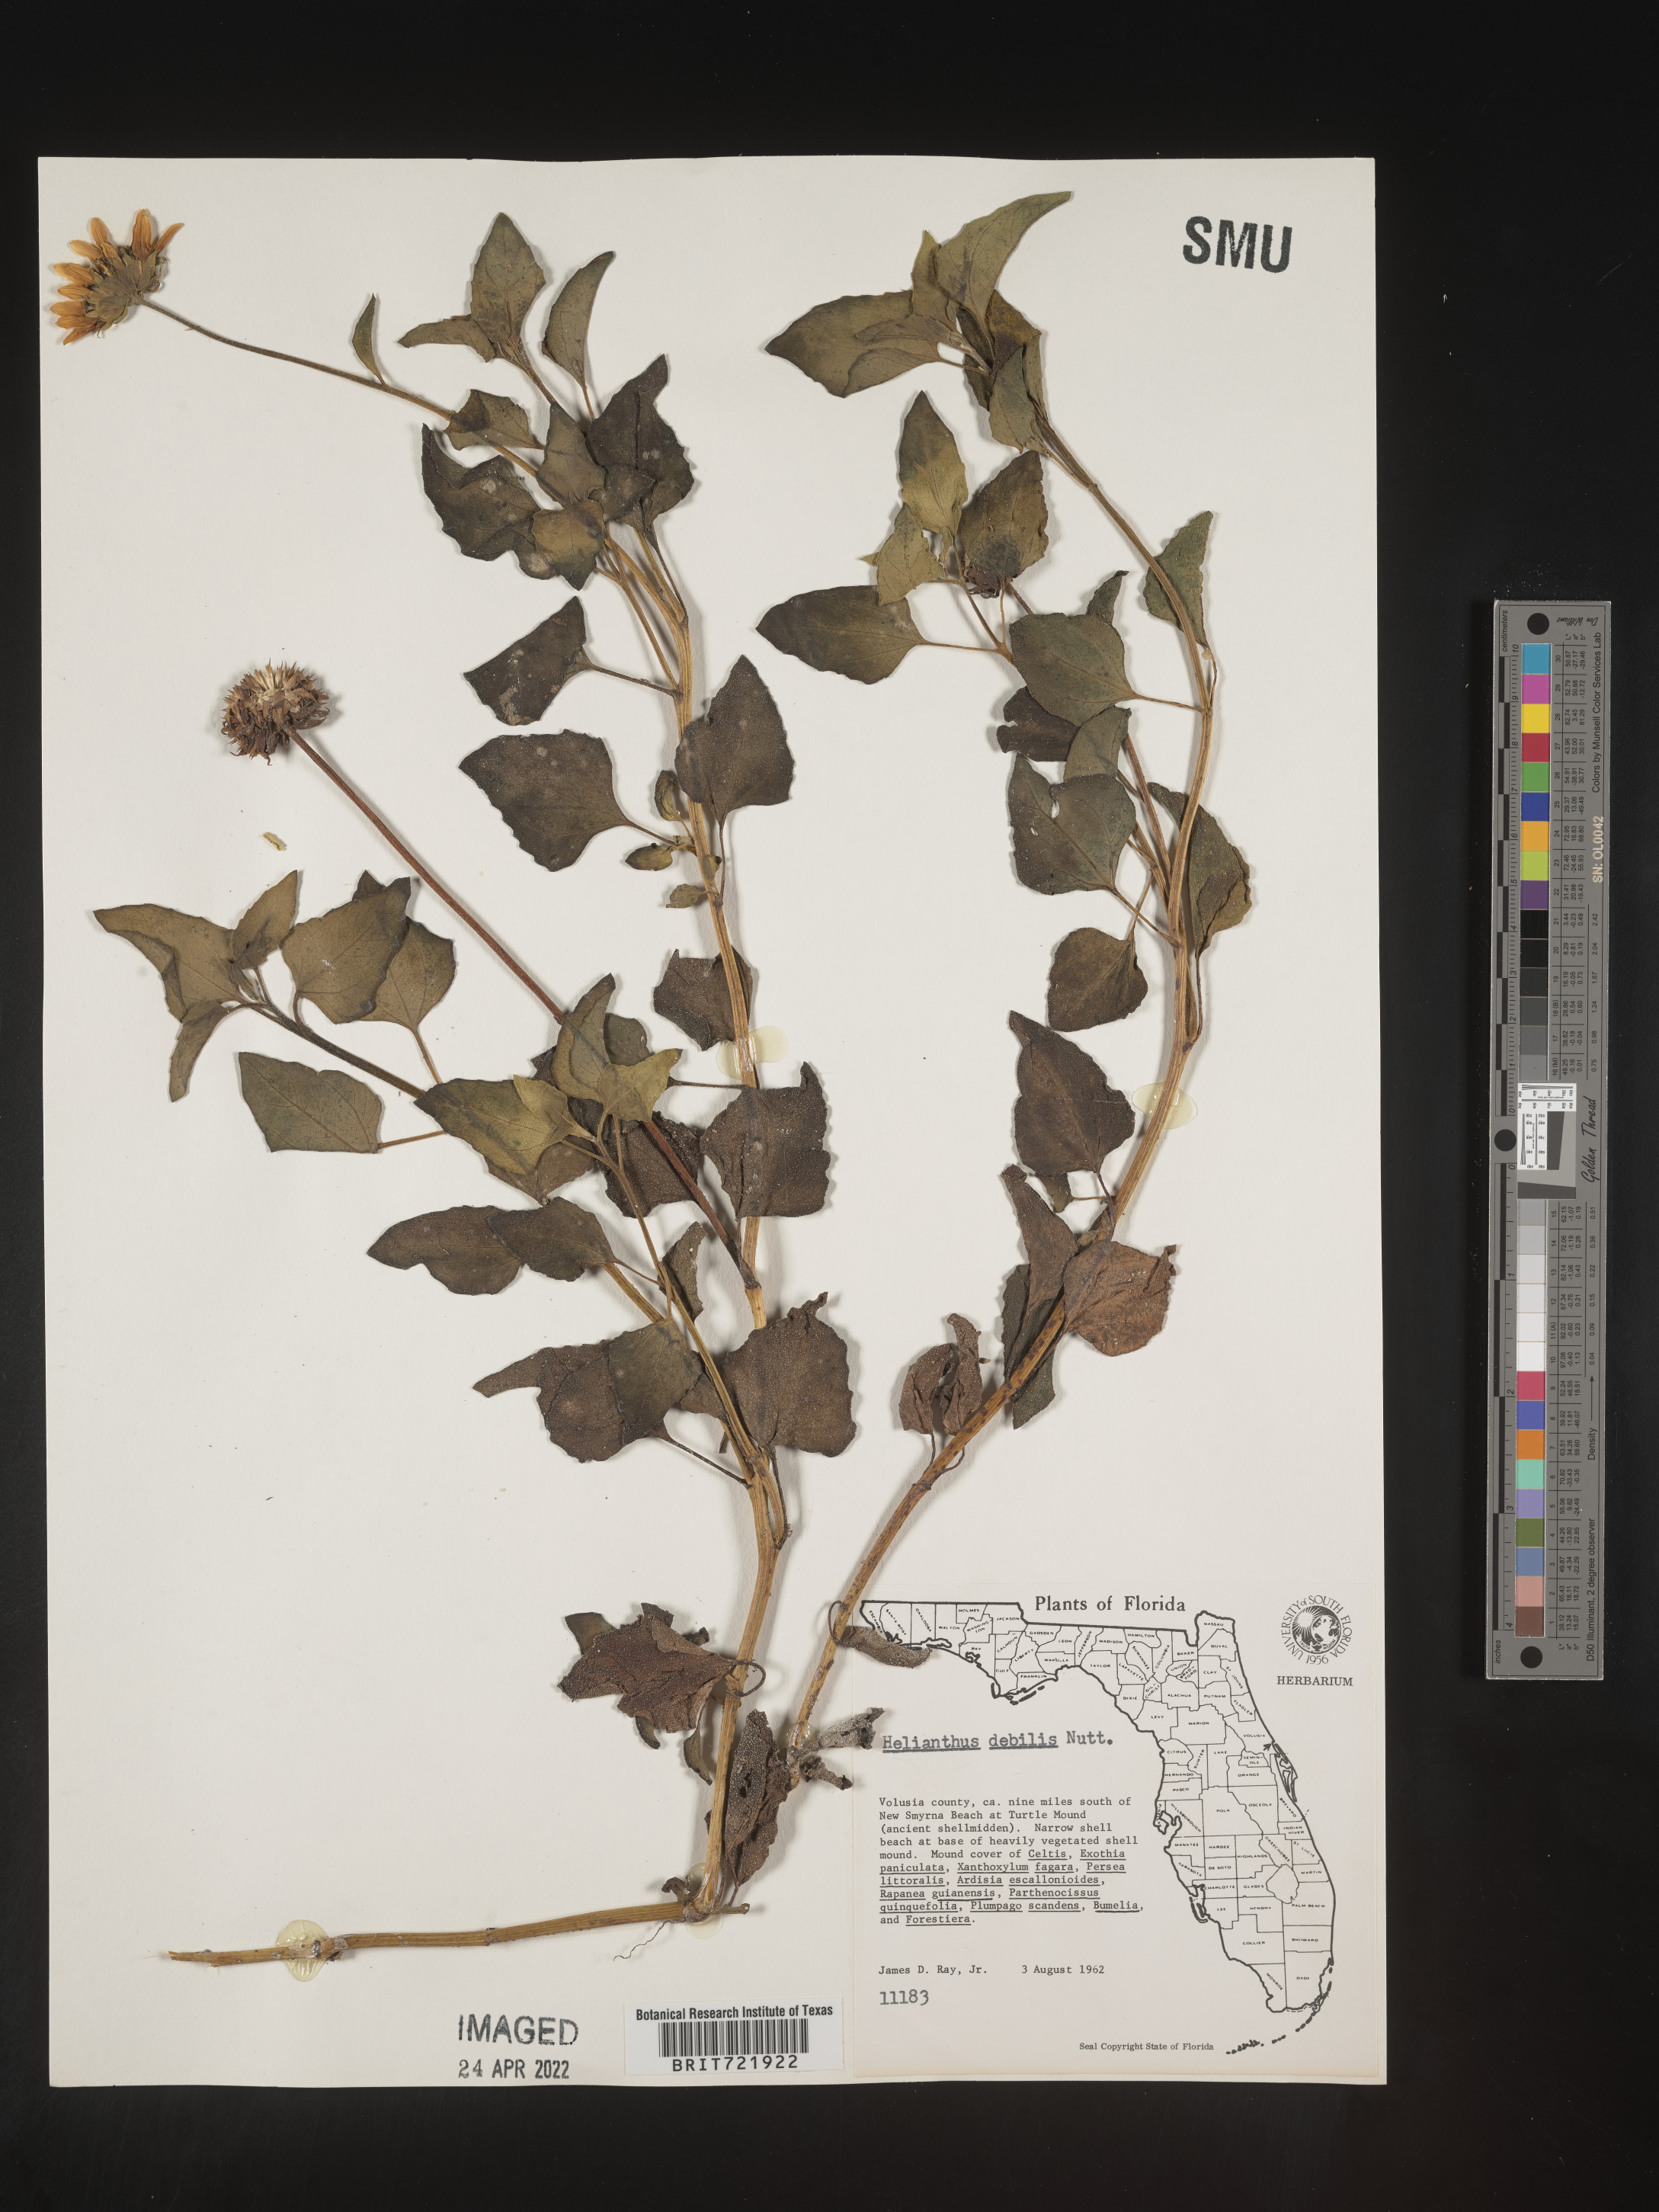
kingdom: Plantae
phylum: Tracheophyta
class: Magnoliopsida
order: Asterales
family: Asteraceae
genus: Helianthus
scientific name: Helianthus debilis
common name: Weak sunflower
